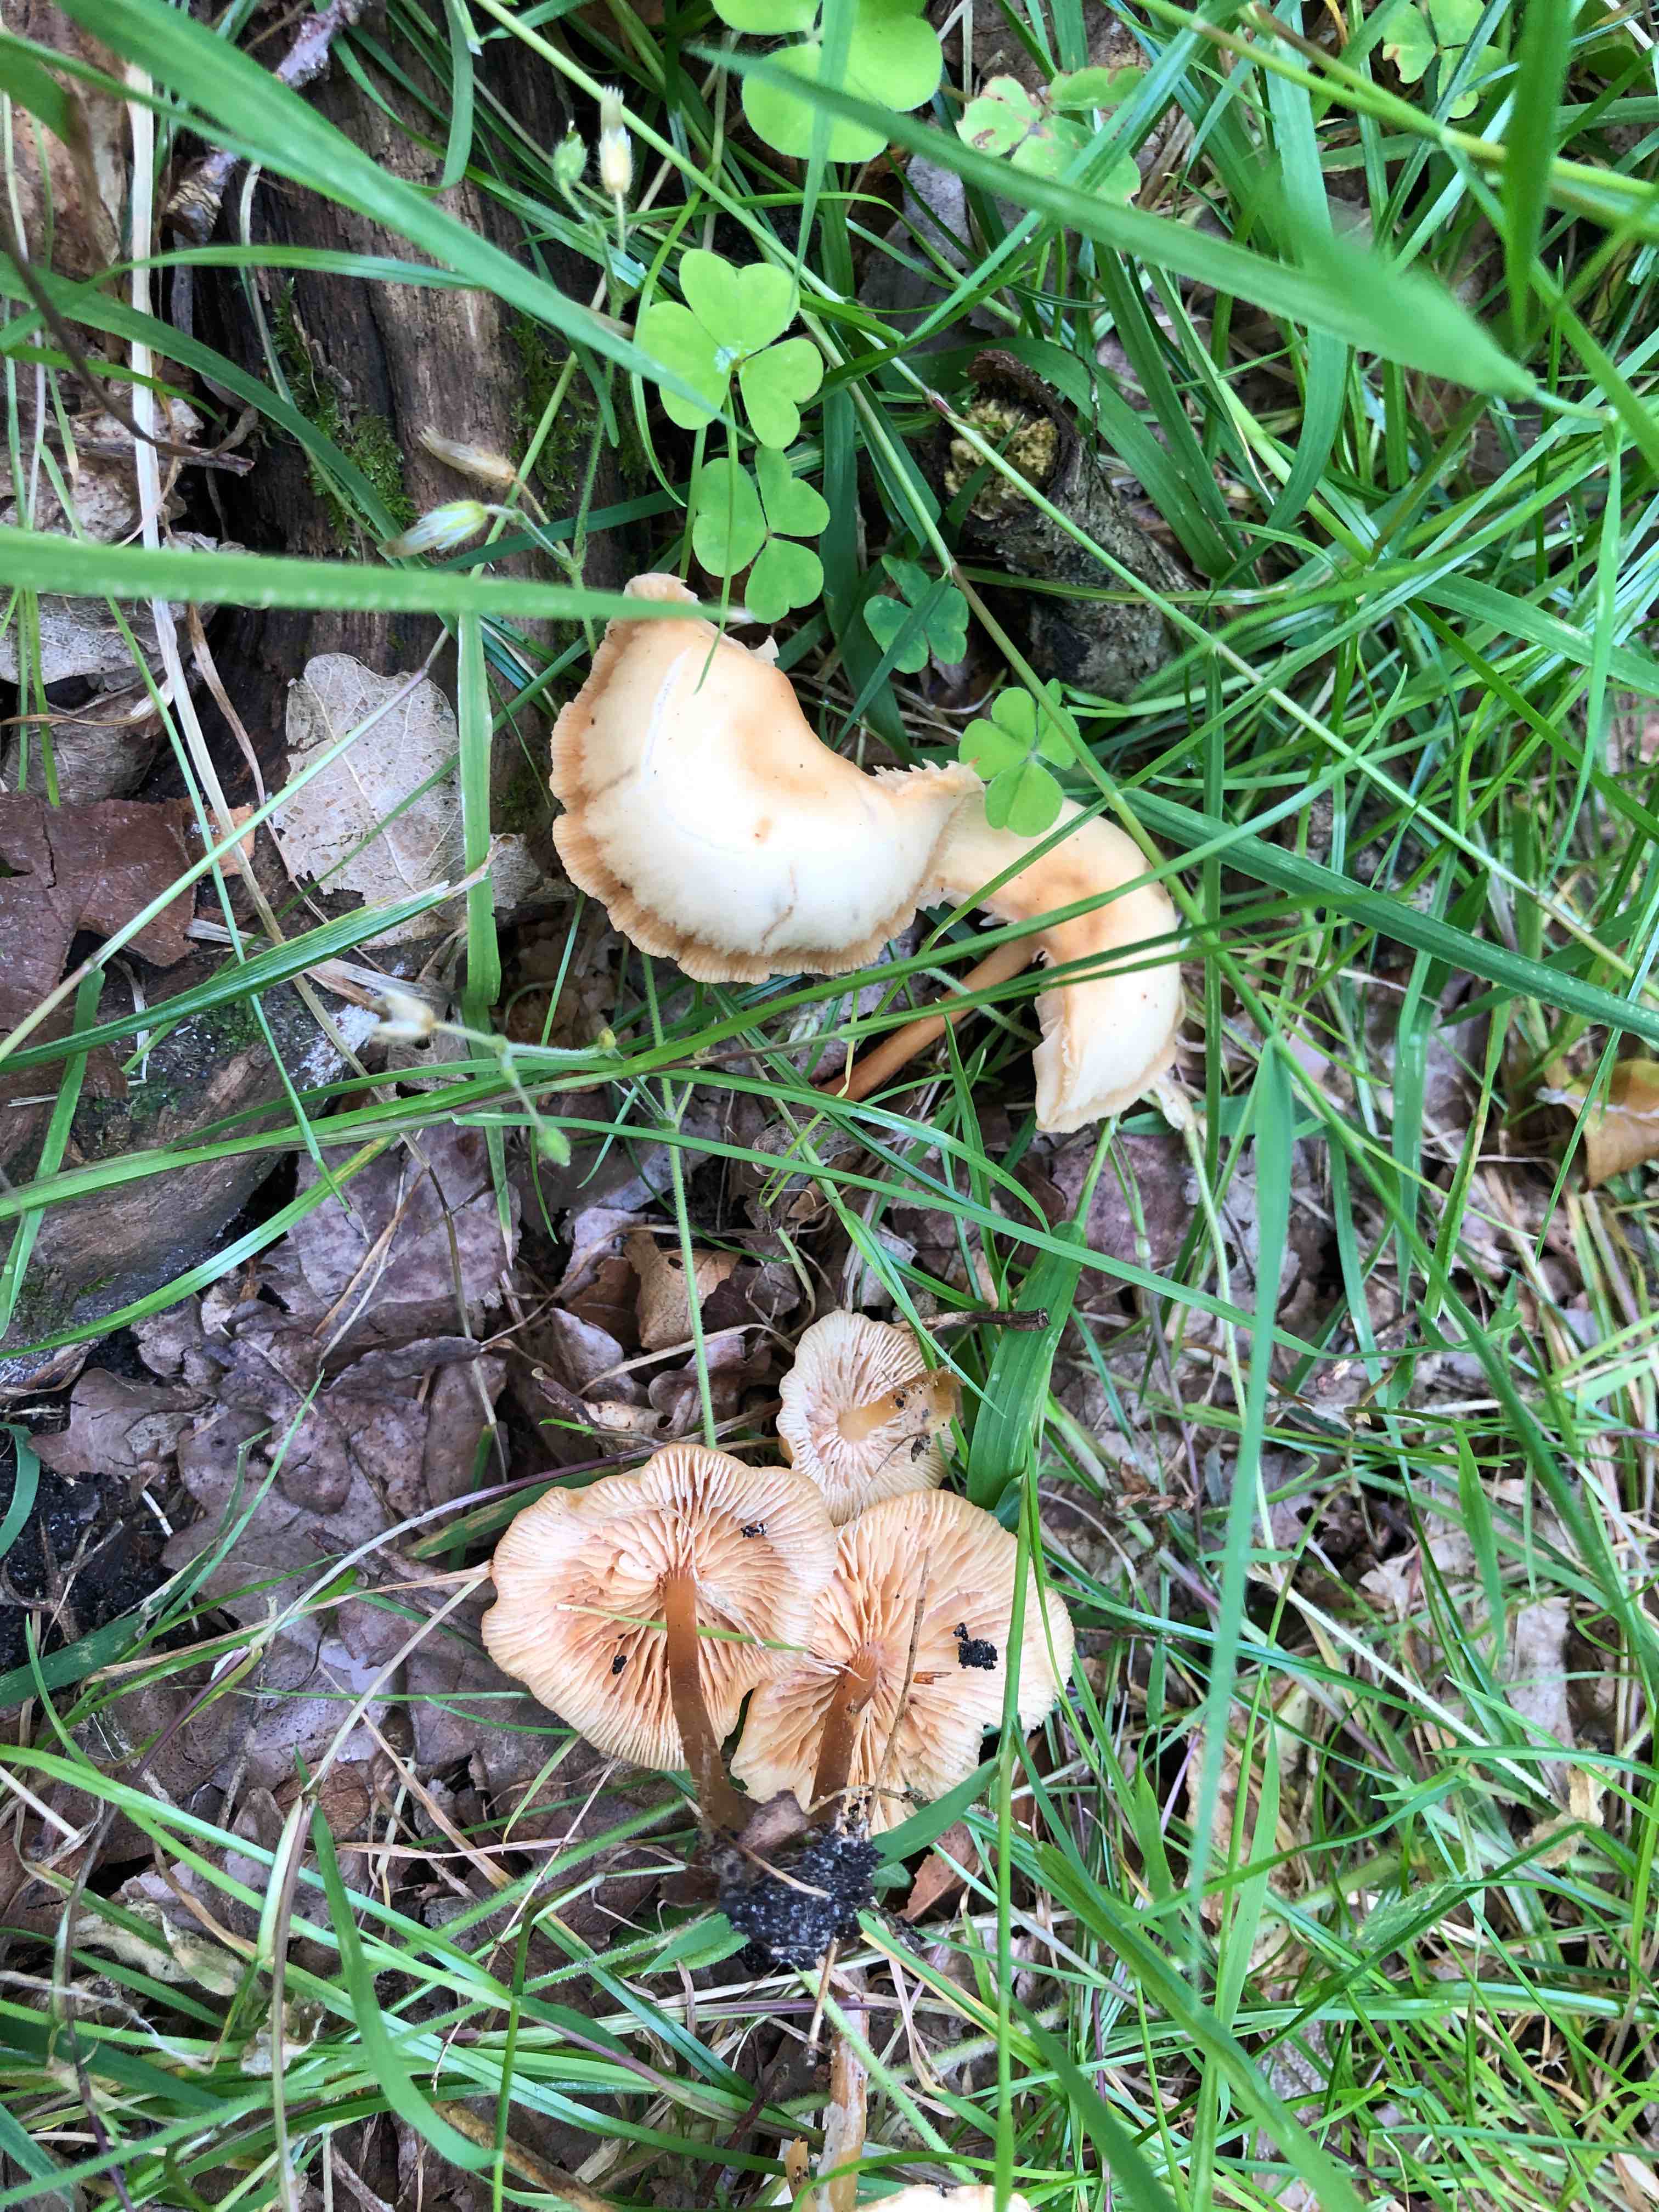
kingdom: Fungi
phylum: Basidiomycota
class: Agaricomycetes
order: Agaricales
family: Marasmiaceae
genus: Marasmius
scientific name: Marasmius oreades
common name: elledans-bruskhat
